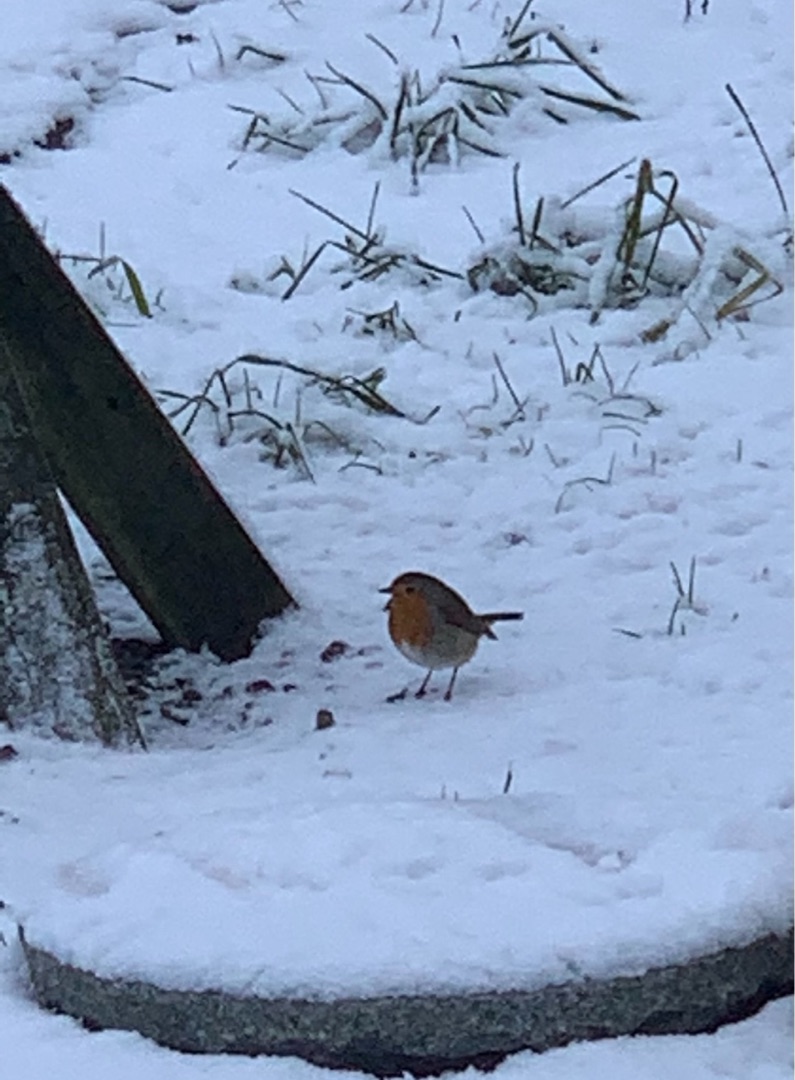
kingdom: Animalia
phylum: Chordata
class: Aves
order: Passeriformes
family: Muscicapidae
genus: Erithacus
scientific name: Erithacus rubecula
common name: Rødhals/rødkælk
